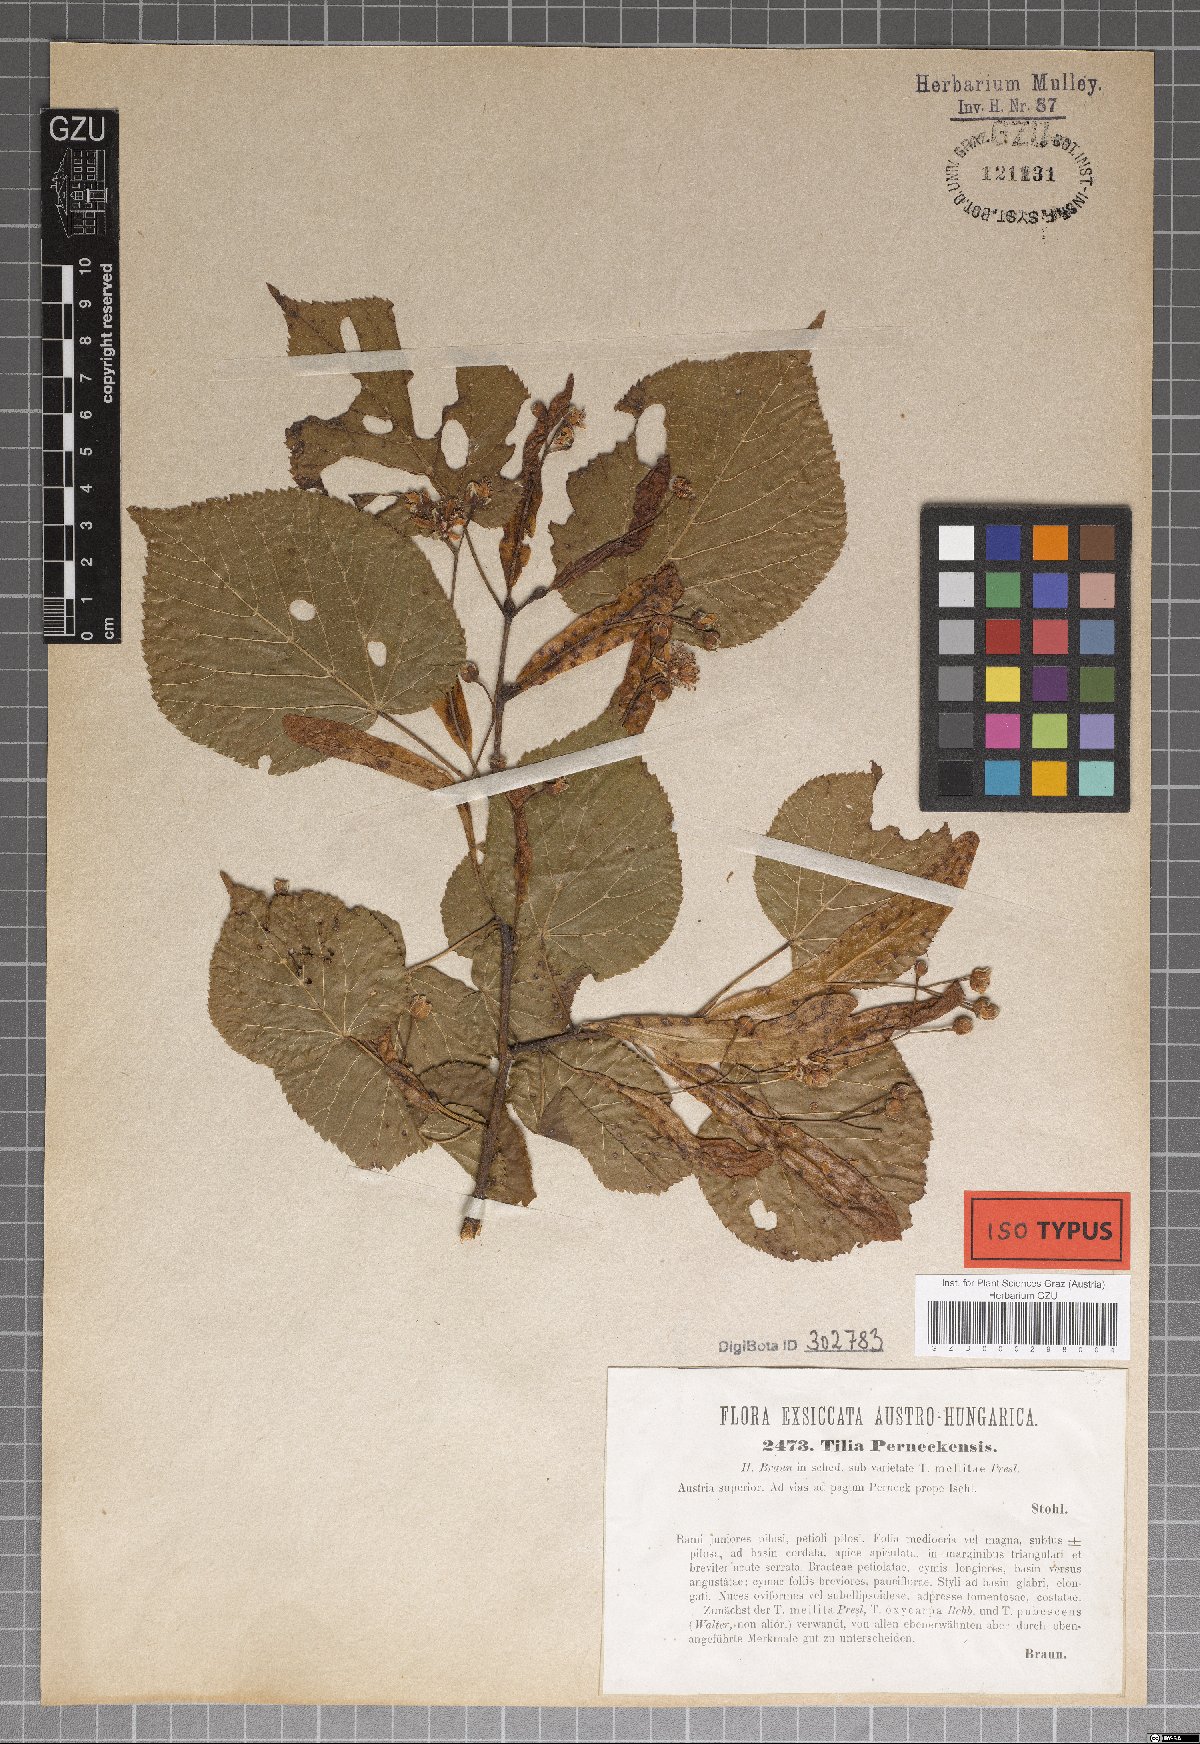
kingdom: Plantae
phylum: Tracheophyta
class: Magnoliopsida
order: Malvales
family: Malvaceae
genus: Tilia
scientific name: Tilia perneckensis
